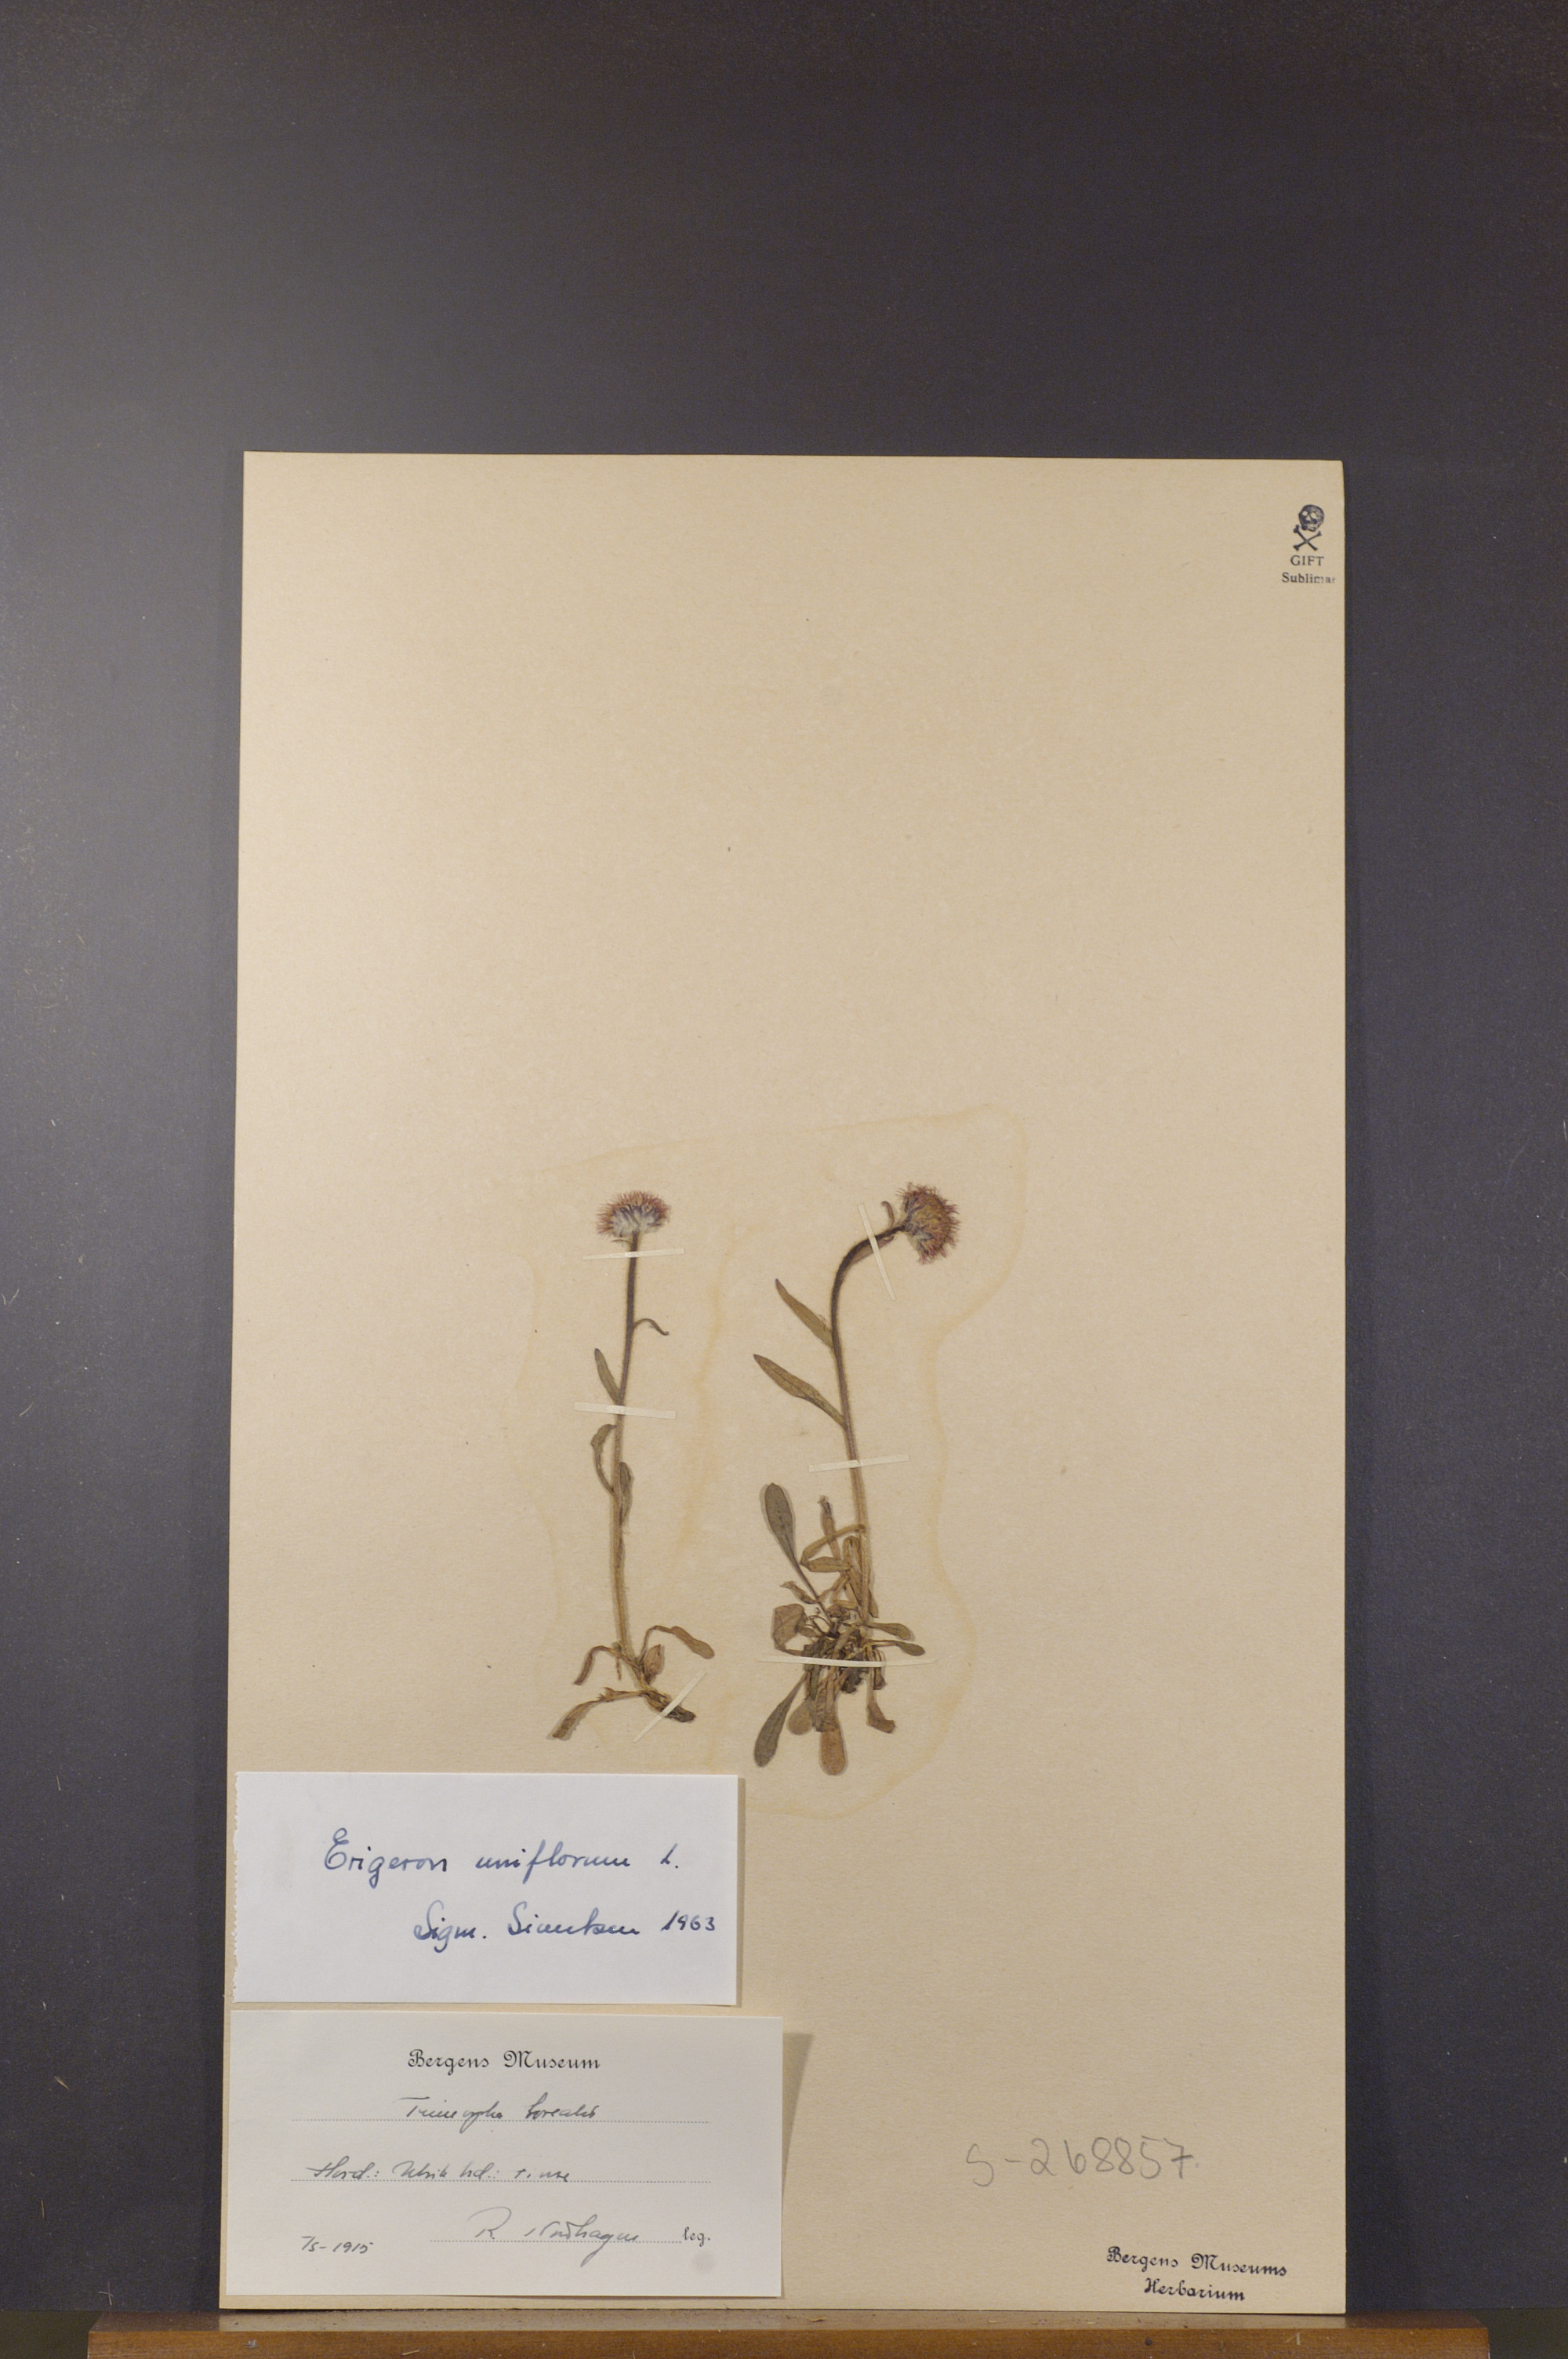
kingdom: Plantae
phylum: Tracheophyta
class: Magnoliopsida
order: Asterales
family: Asteraceae
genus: Erigeron
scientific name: Erigeron uniflorus
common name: Northern daisy
